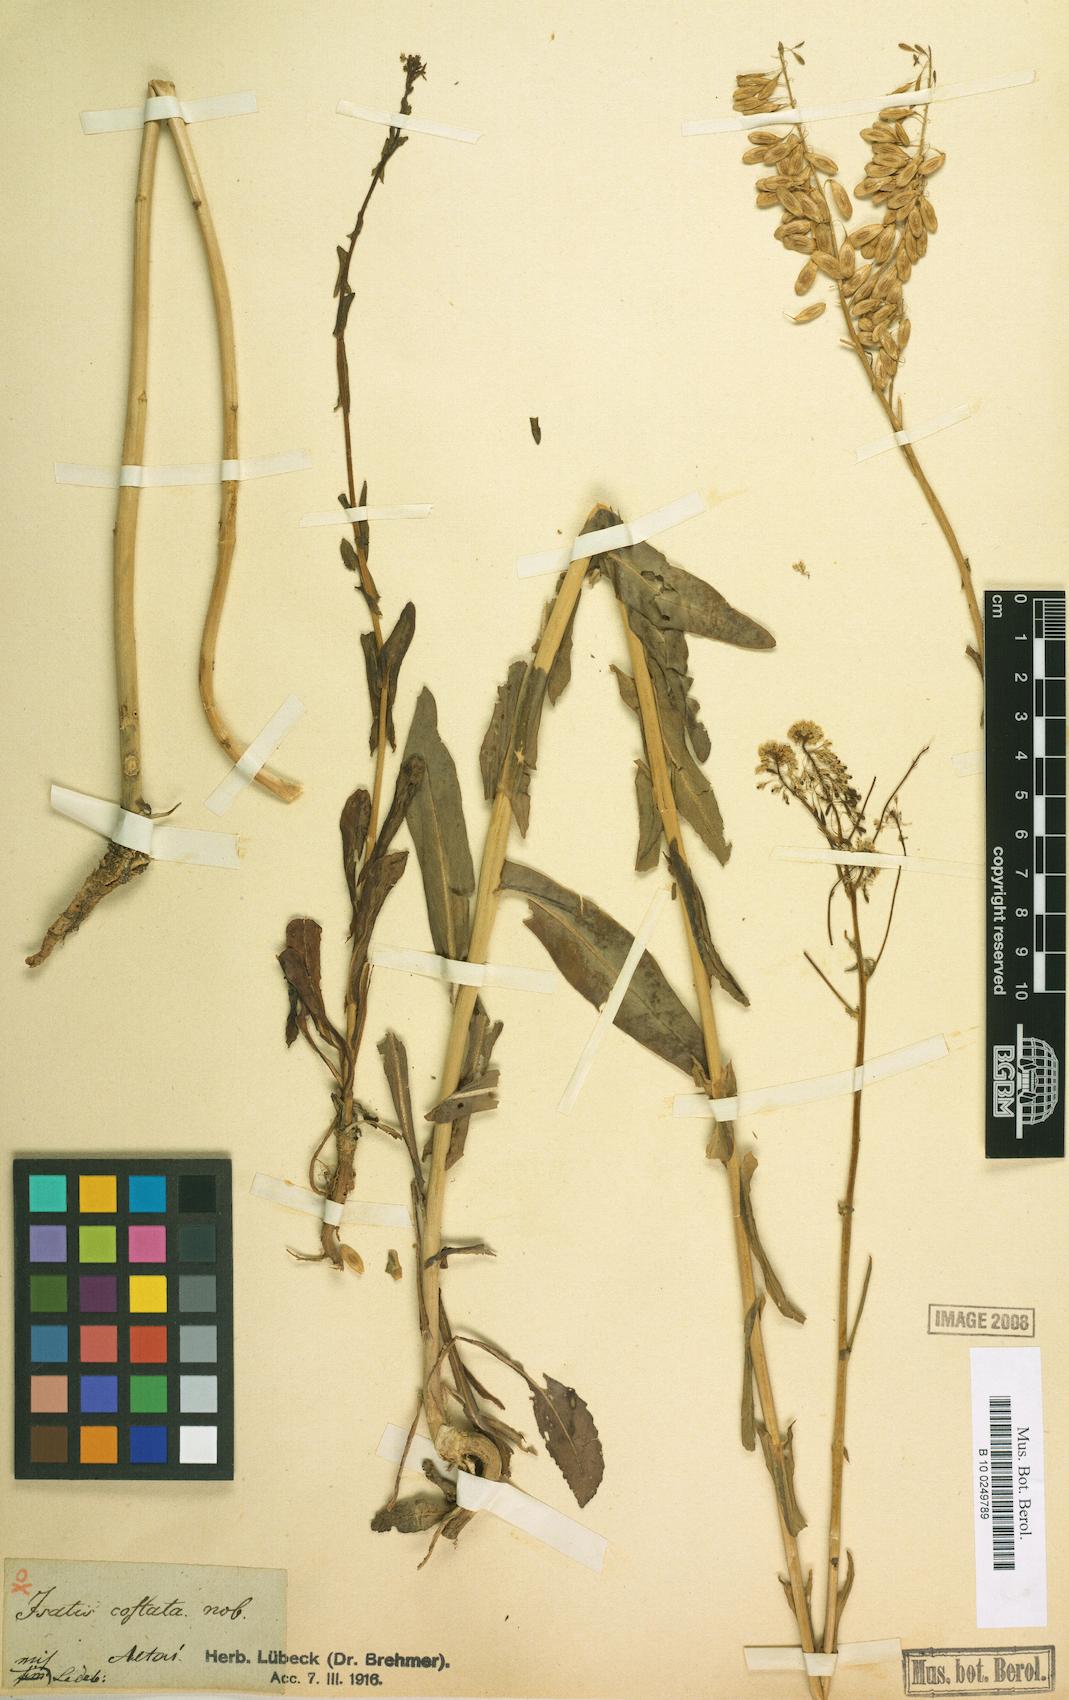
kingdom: Plantae
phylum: Tracheophyta
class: Magnoliopsida
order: Brassicales
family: Brassicaceae
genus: Isatis
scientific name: Isatis costata
